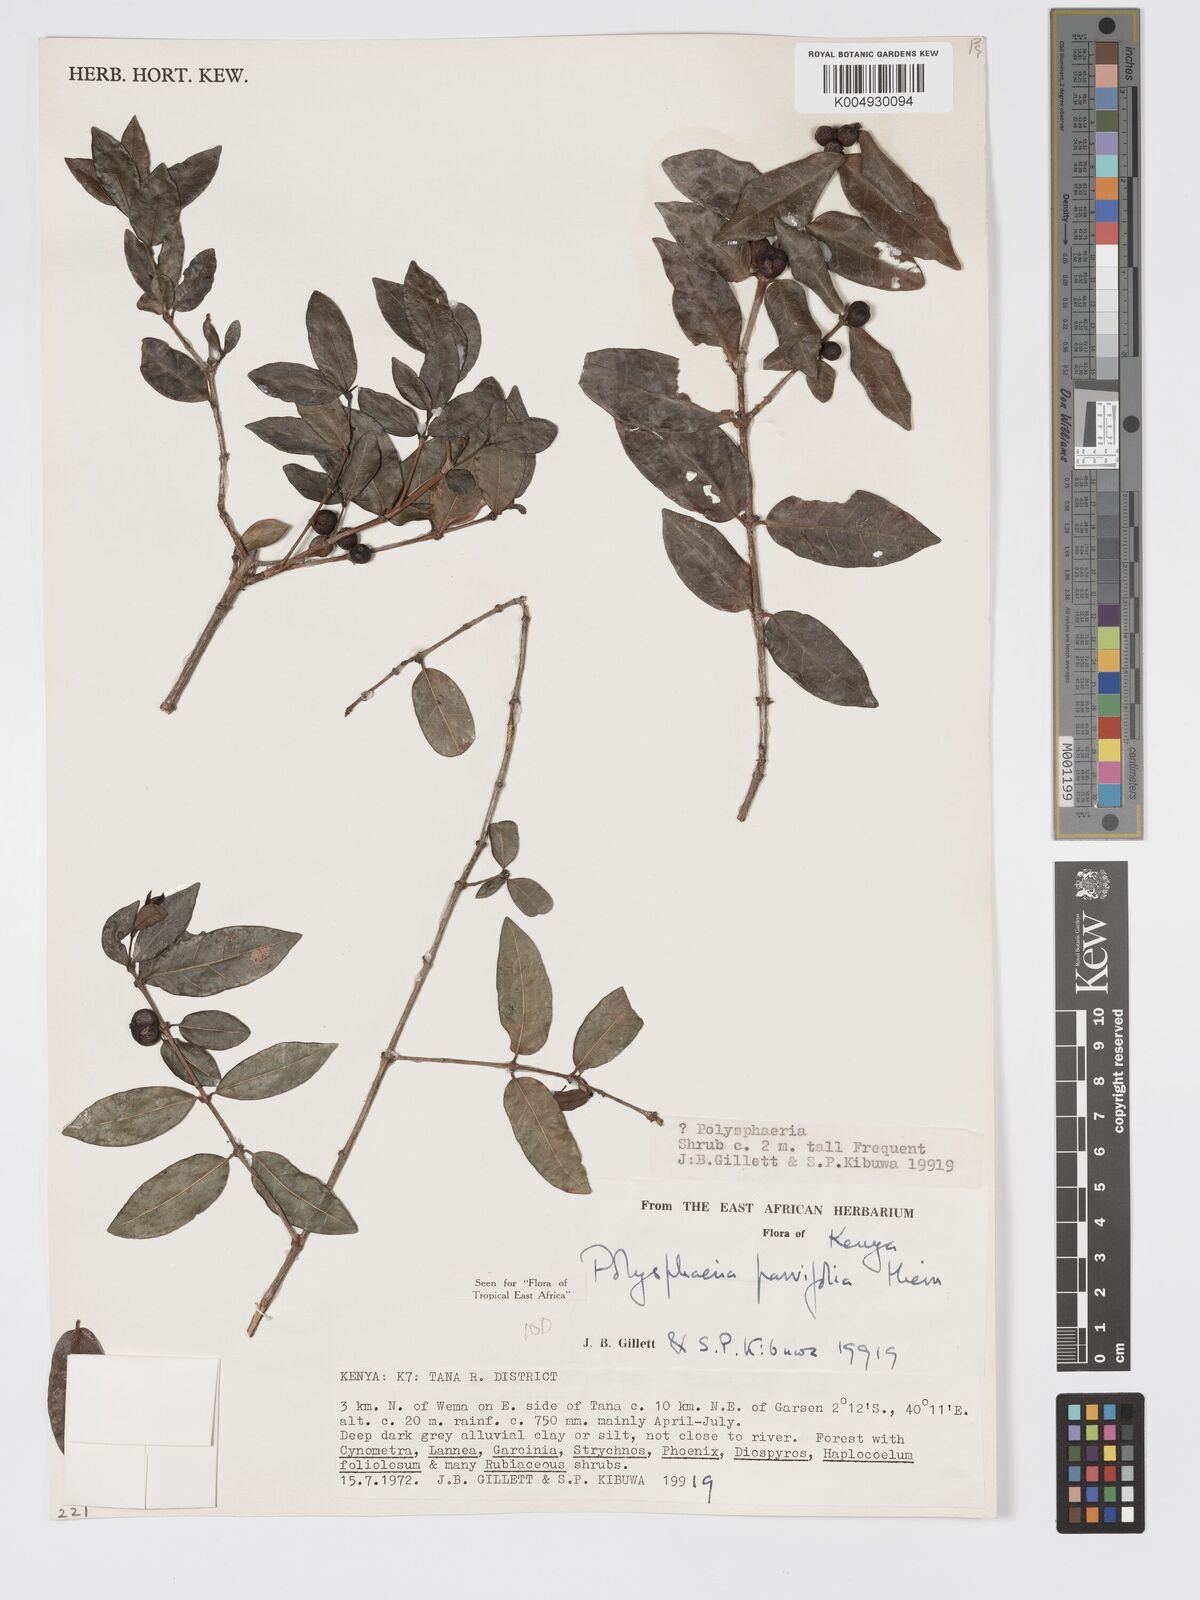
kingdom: Plantae
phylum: Tracheophyta
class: Magnoliopsida
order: Gentianales
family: Rubiaceae
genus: Eumachia
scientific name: Eumachia parviflora
